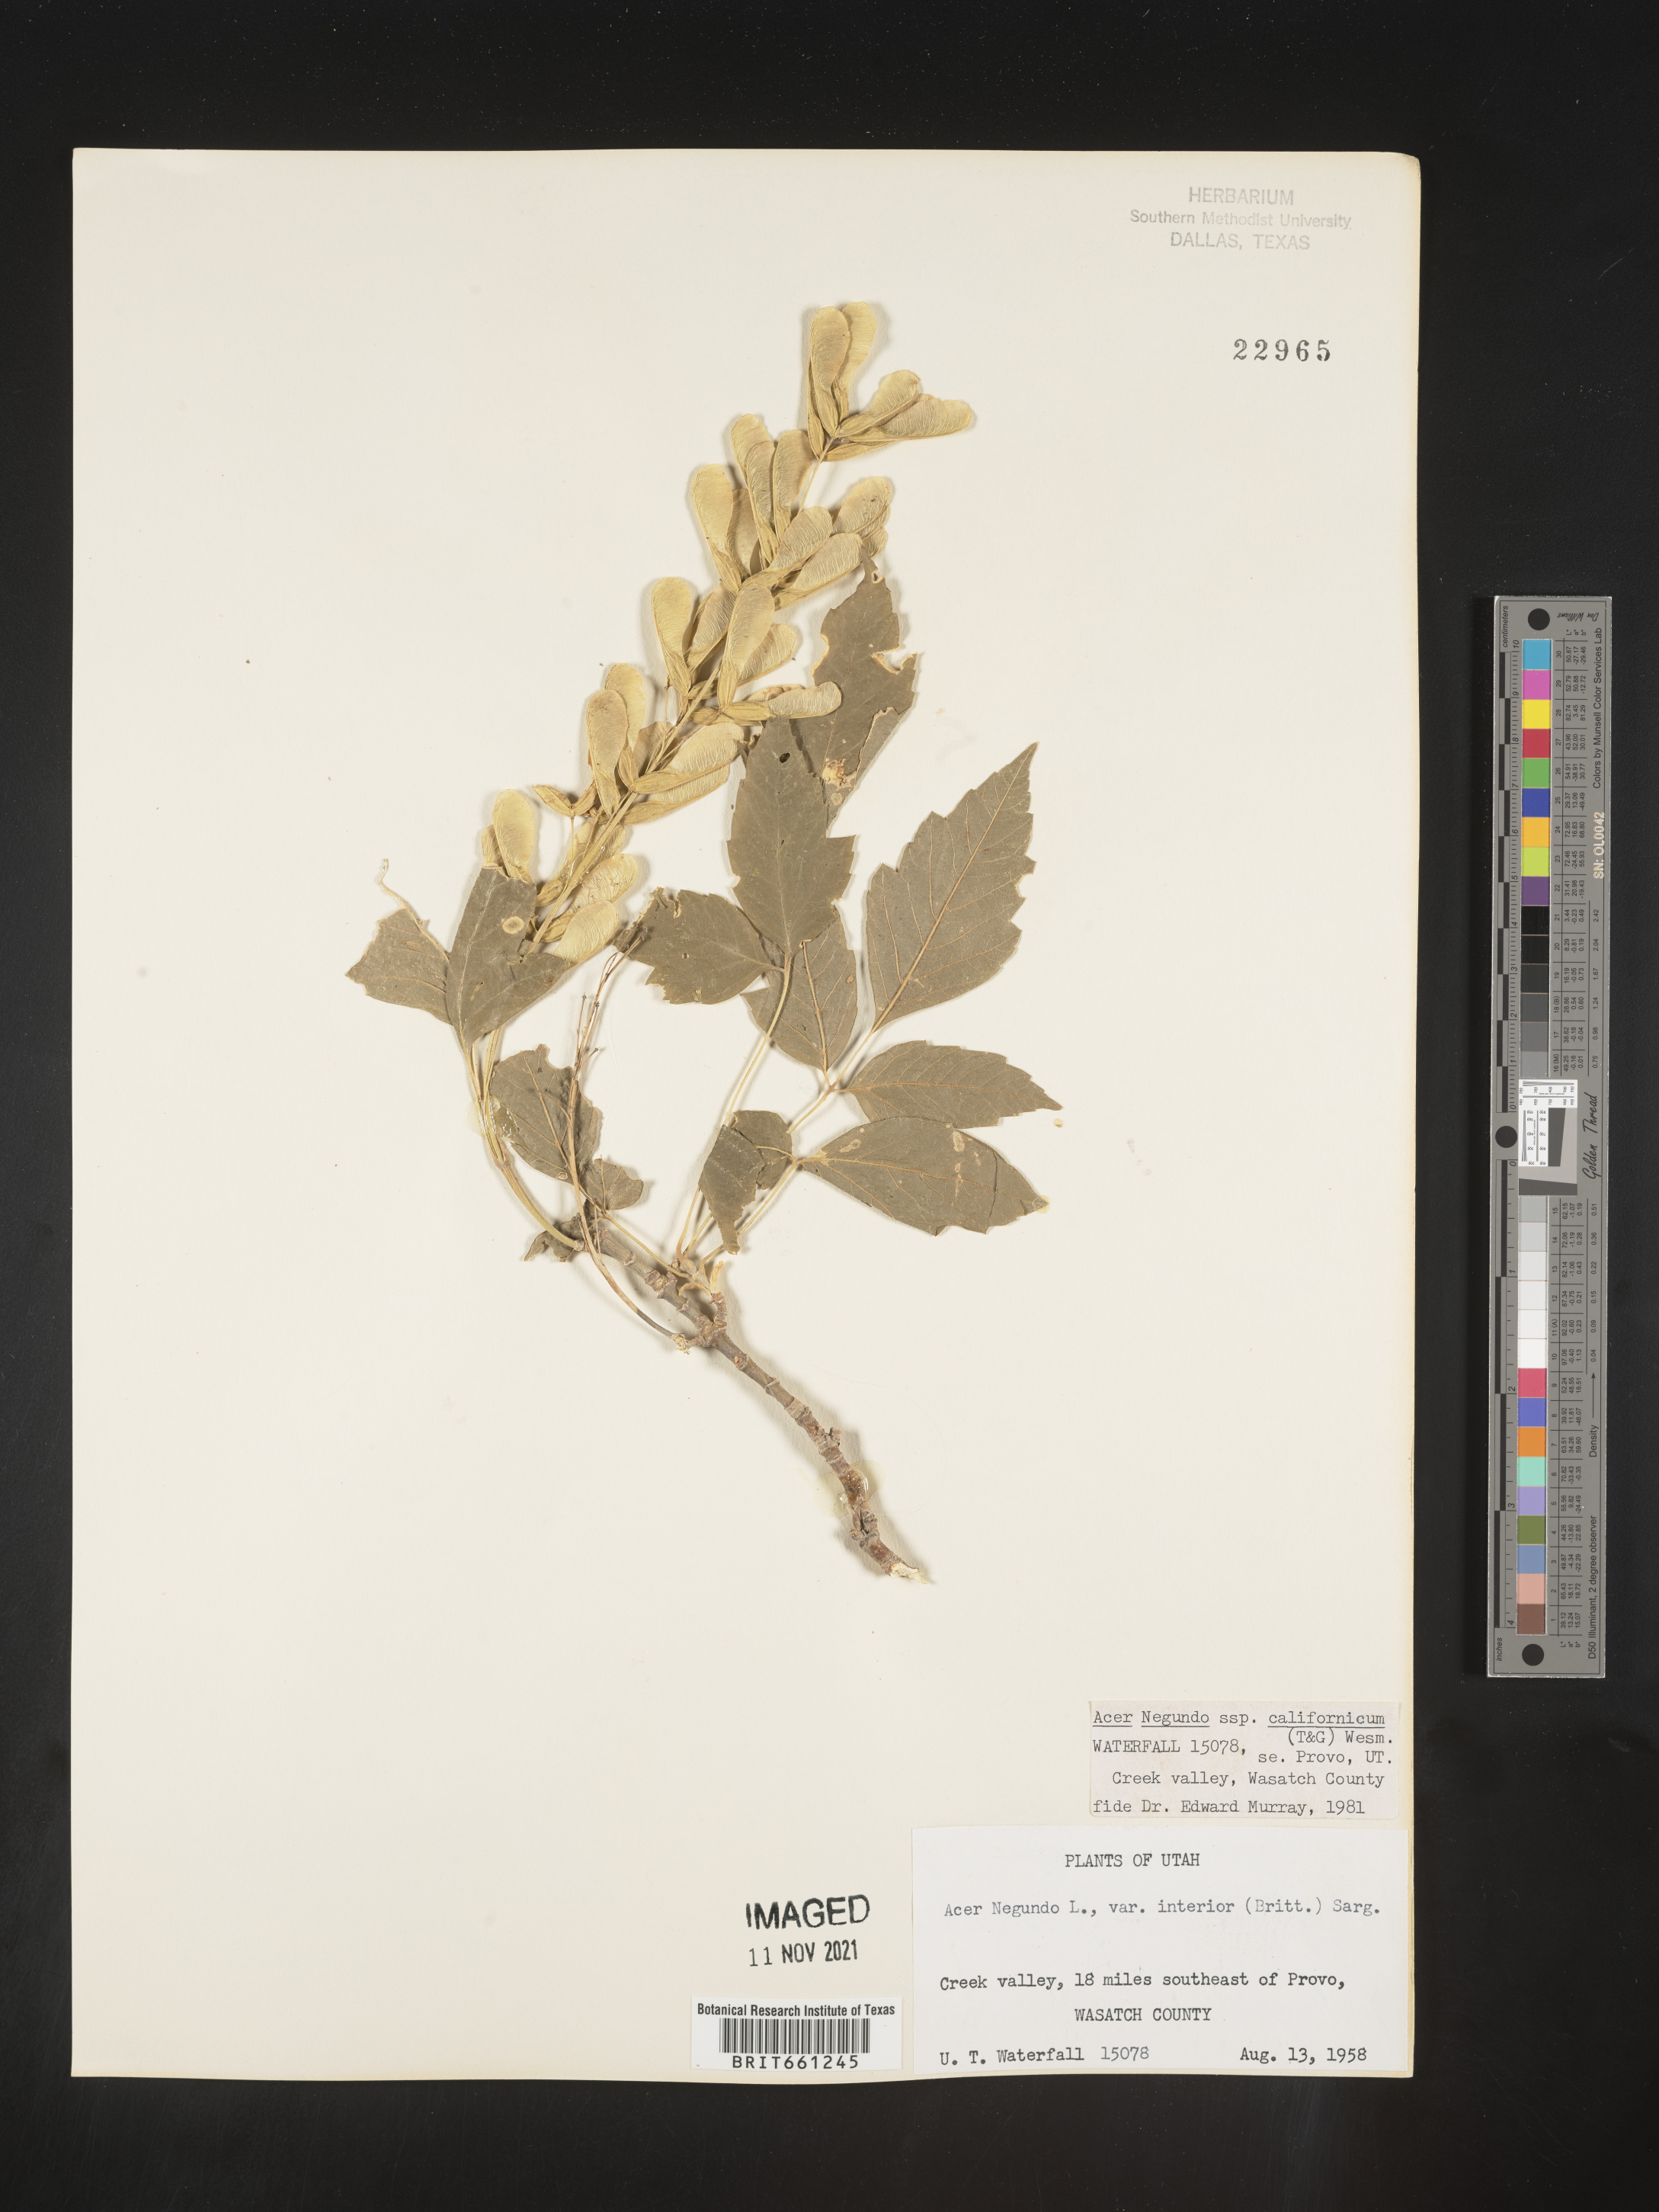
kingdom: Plantae
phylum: Tracheophyta
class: Magnoliopsida
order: Sapindales
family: Sapindaceae
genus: Acer
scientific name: Acer negundo
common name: Ashleaf maple
